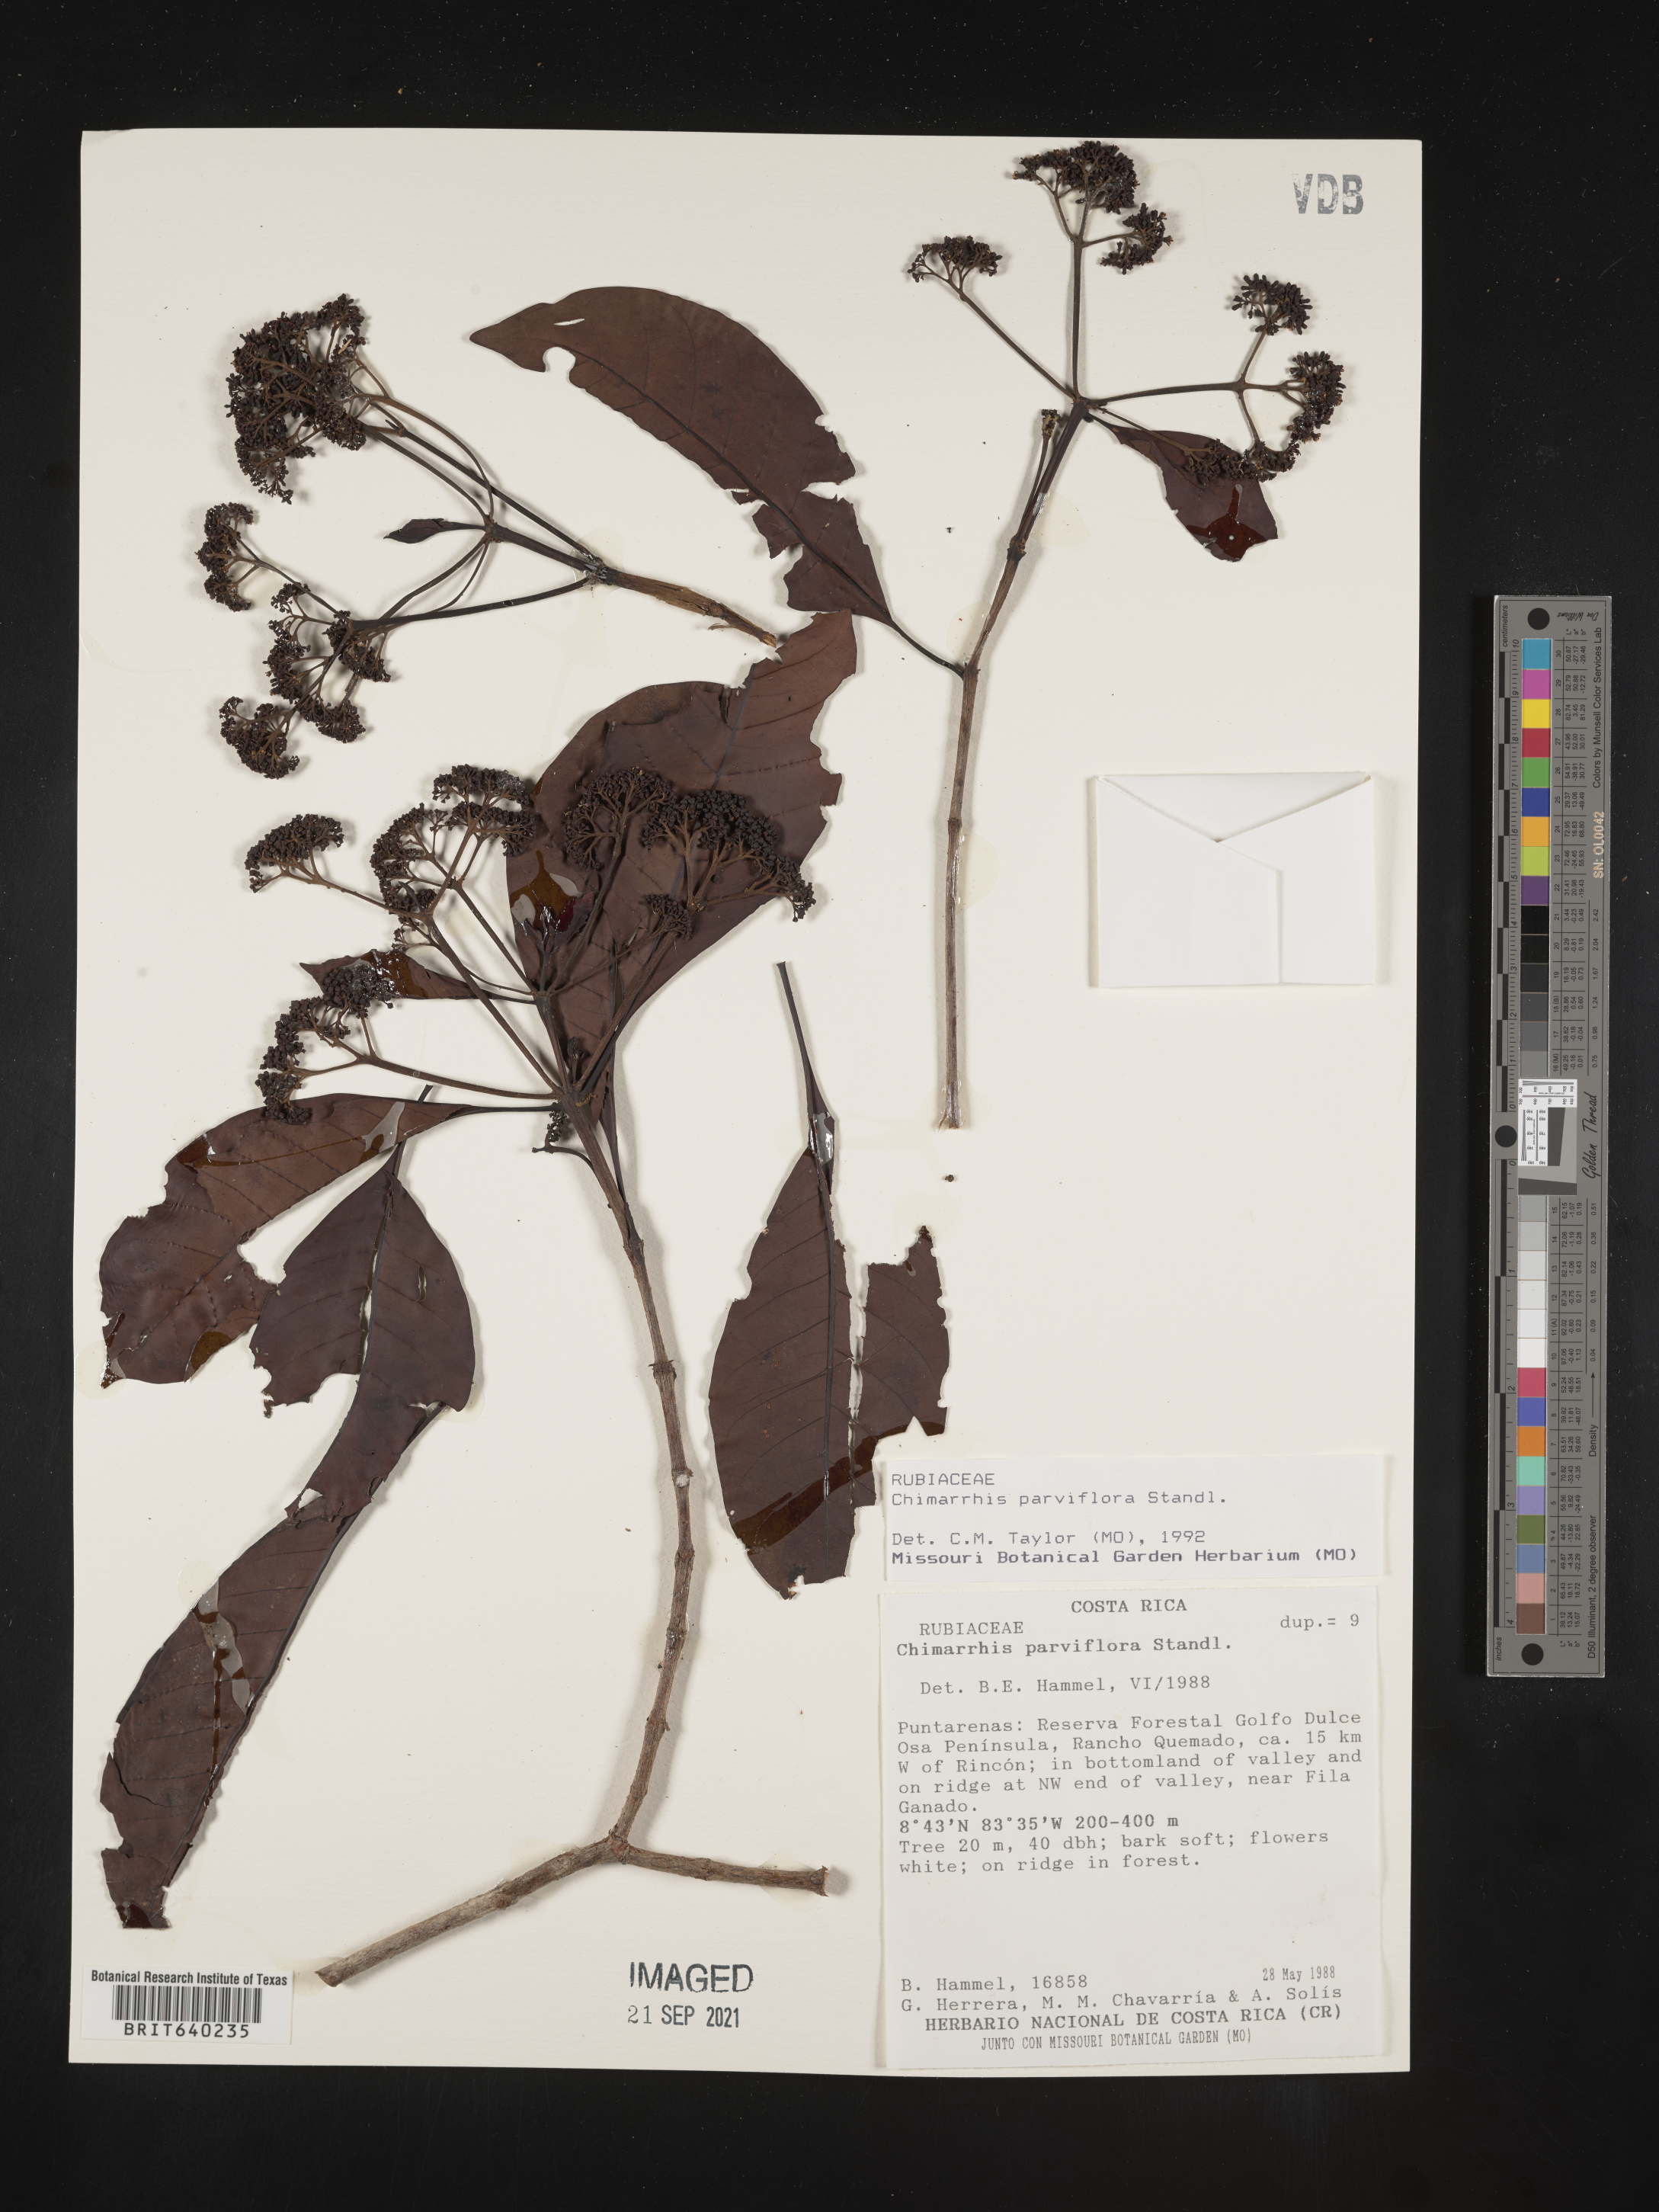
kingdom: Plantae
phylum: Tracheophyta
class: Magnoliopsida
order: Gentianales
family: Rubiaceae
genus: Chimarrhis
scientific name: Chimarrhis
